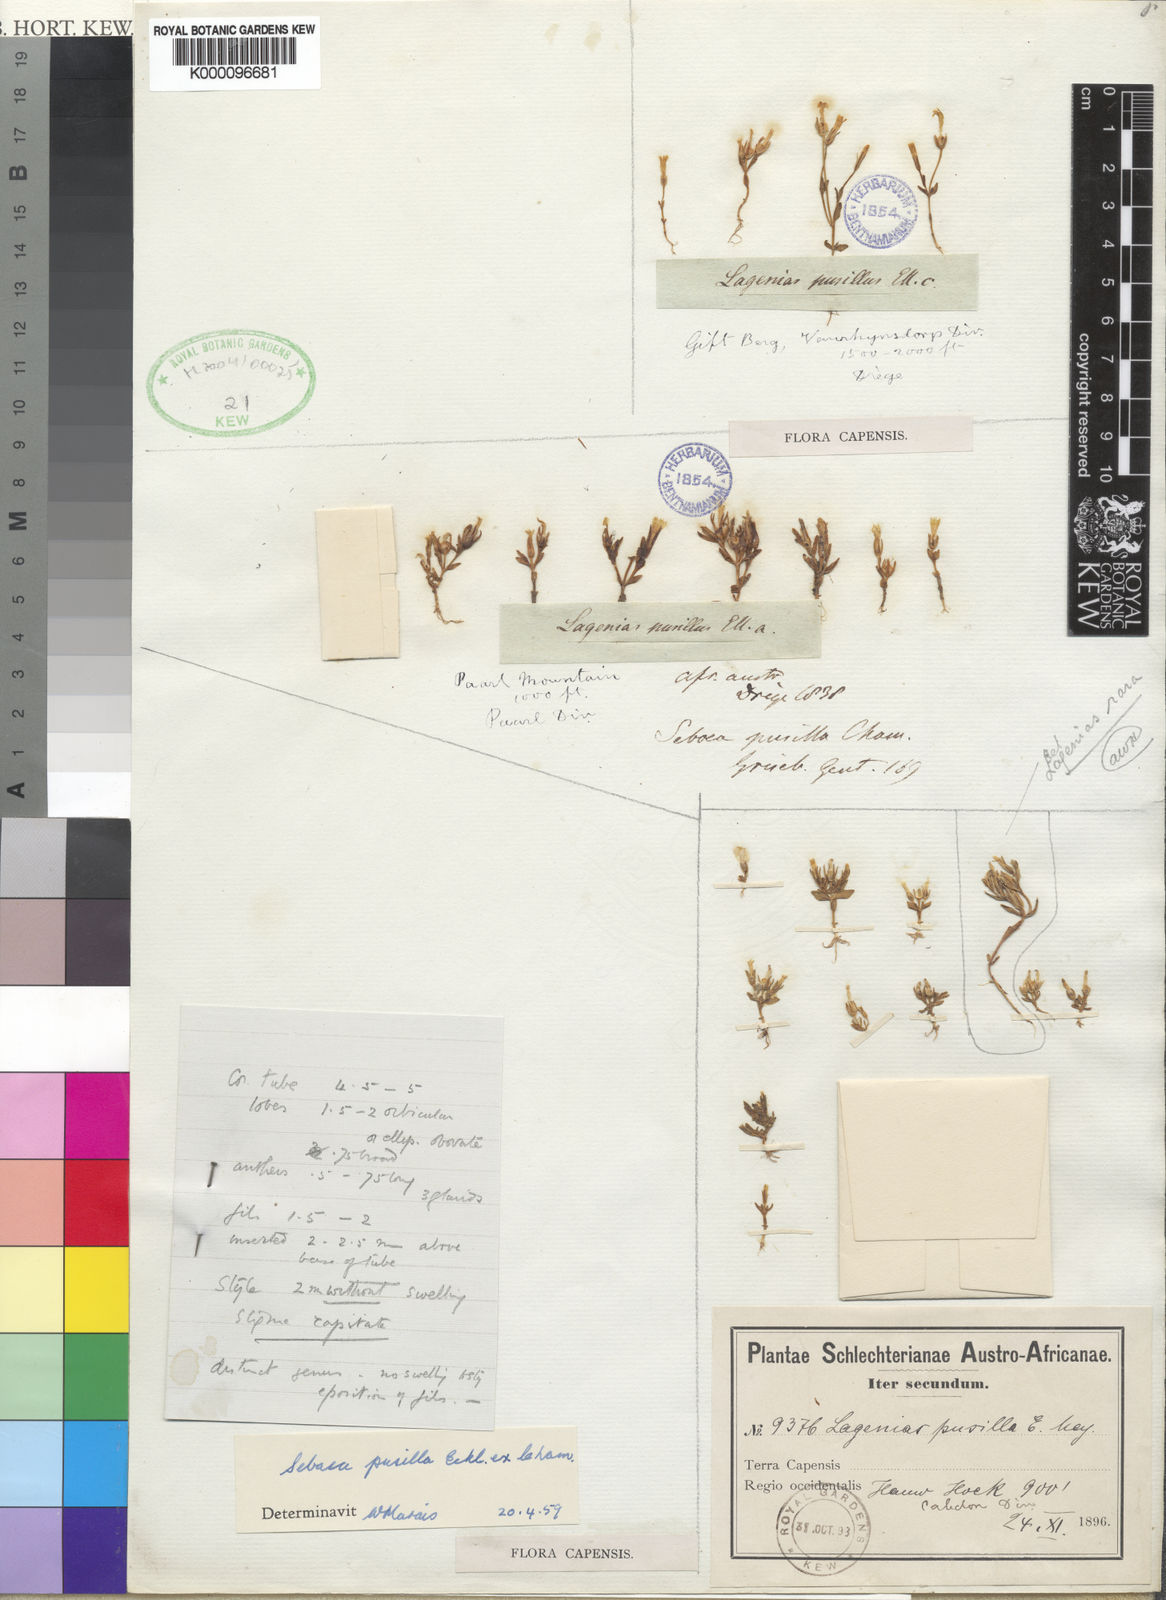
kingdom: Plantae
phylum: Tracheophyta
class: Magnoliopsida
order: Gentianales
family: Gentianaceae
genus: Lagenias
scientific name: Lagenias
